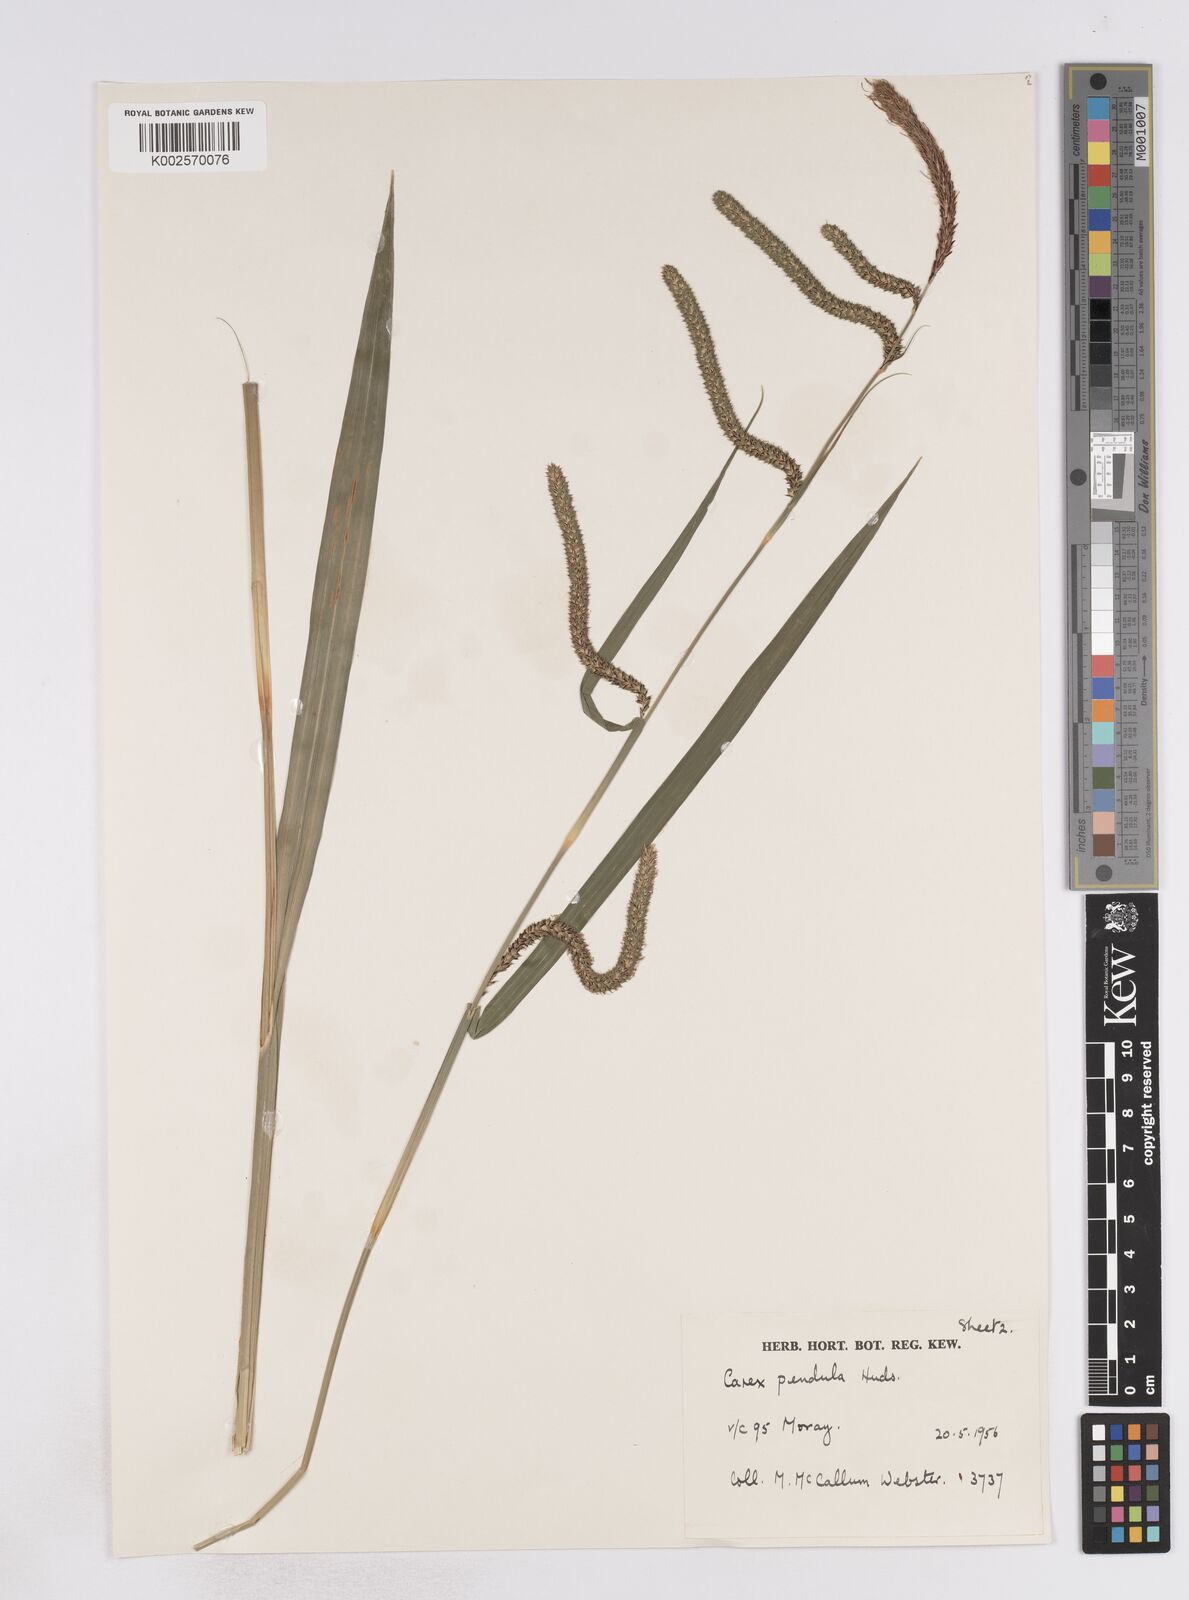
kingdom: Plantae
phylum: Tracheophyta
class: Liliopsida
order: Poales
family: Cyperaceae
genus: Carex
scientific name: Carex pendula
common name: Pendulous sedge
